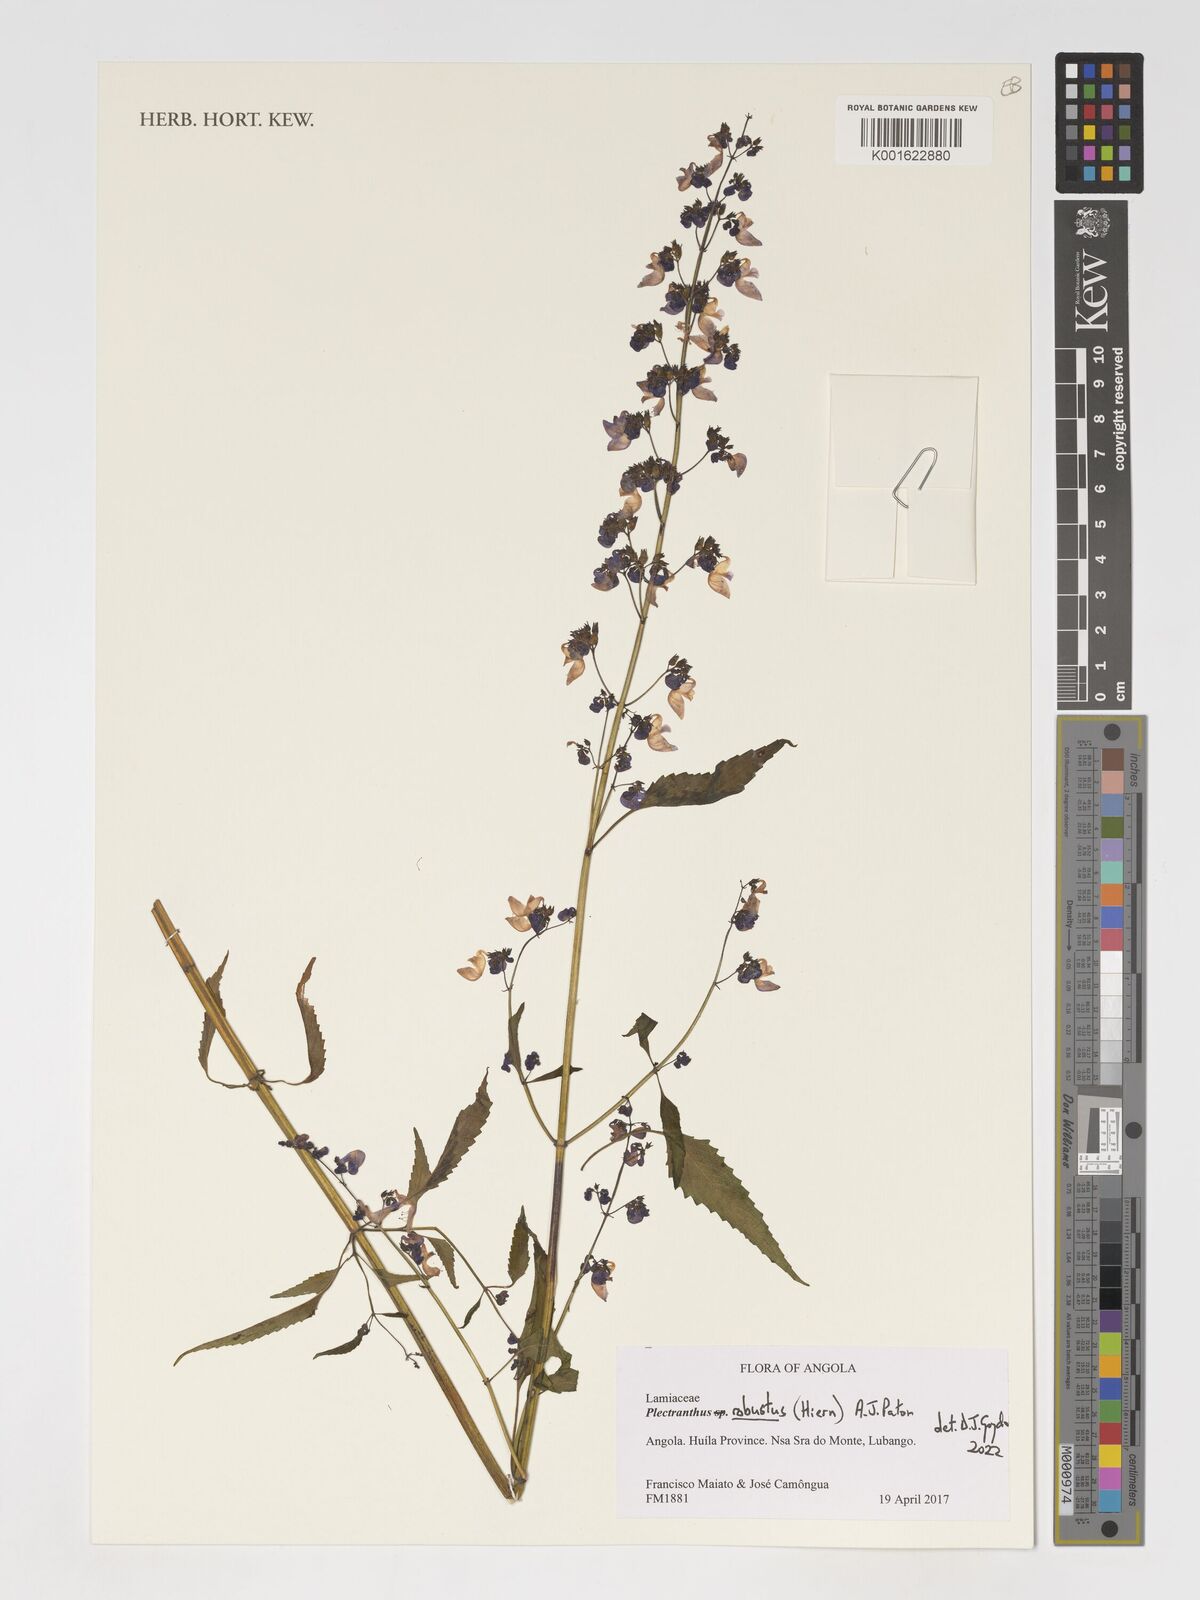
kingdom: Plantae
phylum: Tracheophyta
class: Magnoliopsida
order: Lamiales
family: Lamiaceae
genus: Coleus
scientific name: Coleus celsus
